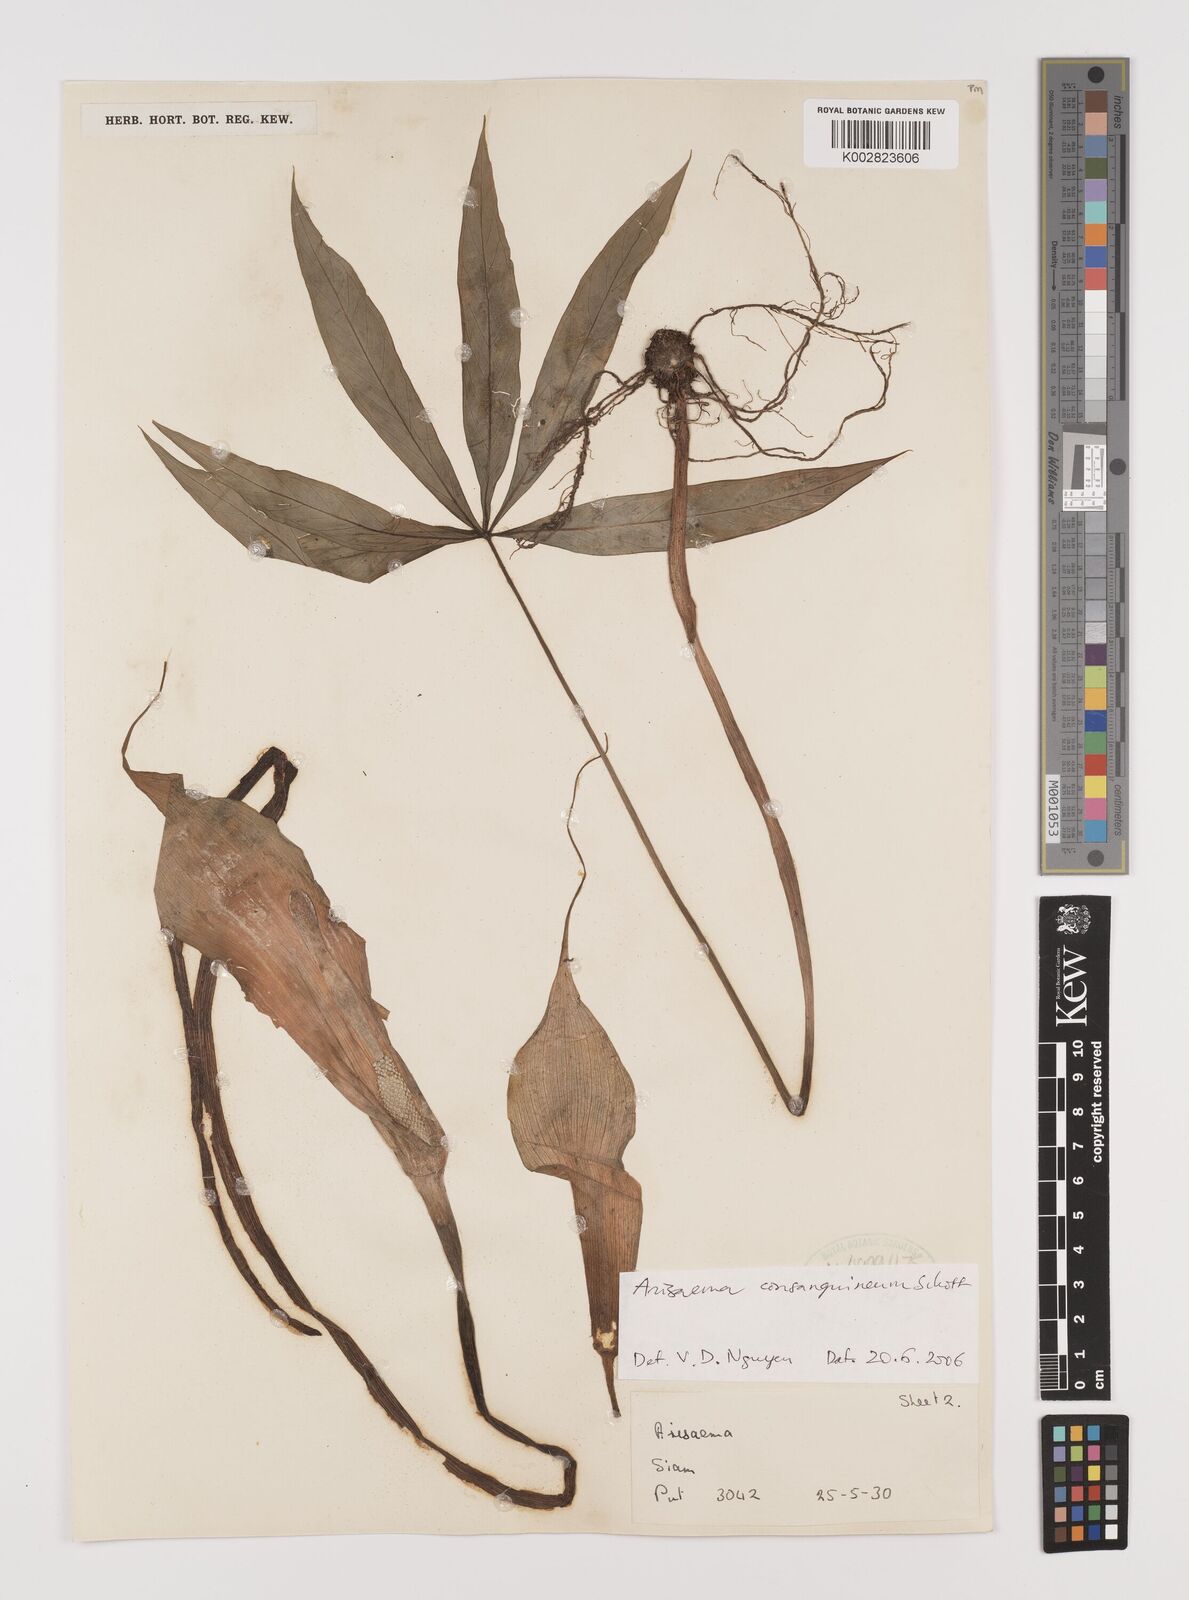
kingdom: Plantae
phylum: Tracheophyta
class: Liliopsida
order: Alismatales
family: Araceae
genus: Arisaema
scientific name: Arisaema consanguineum
